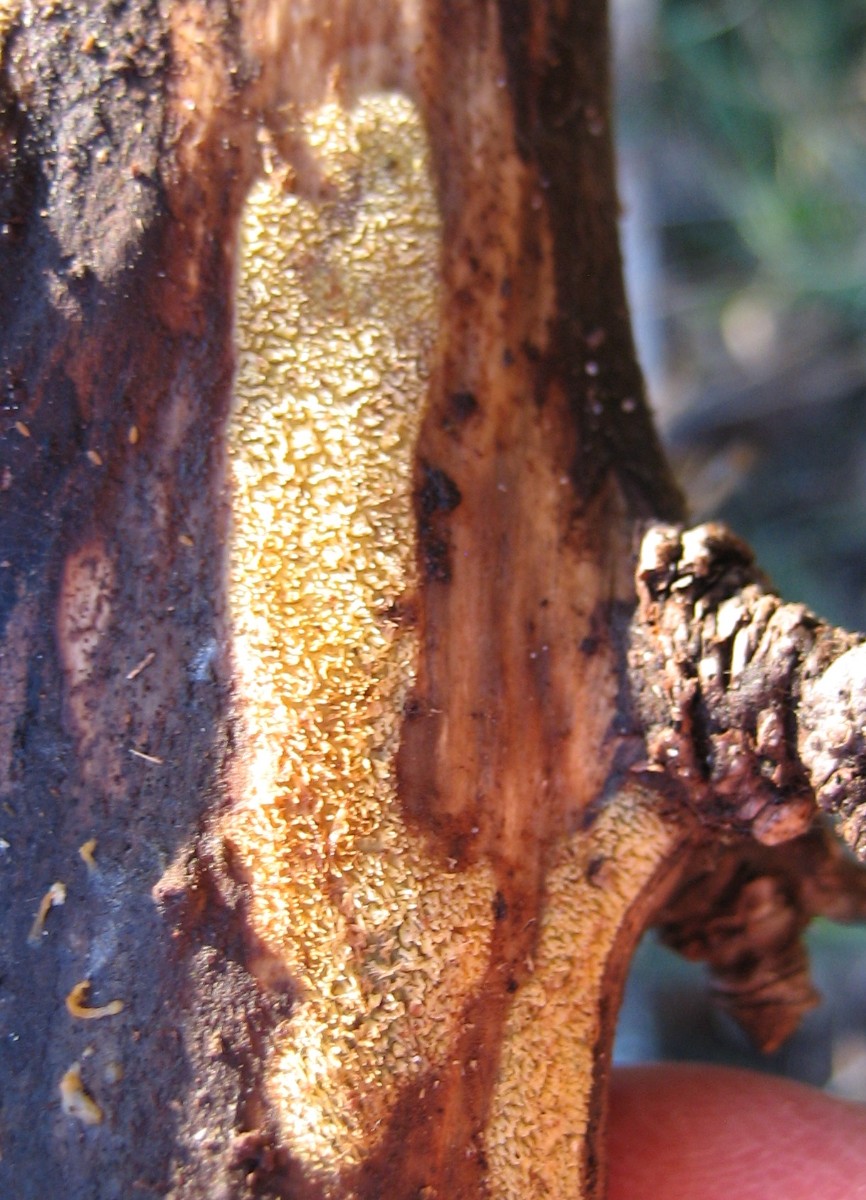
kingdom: Fungi
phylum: Basidiomycota
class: Agaricomycetes
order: Polyporales
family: Meruliaceae
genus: Mycoacia
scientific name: Mycoacia uda
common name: citrongul vokspig
